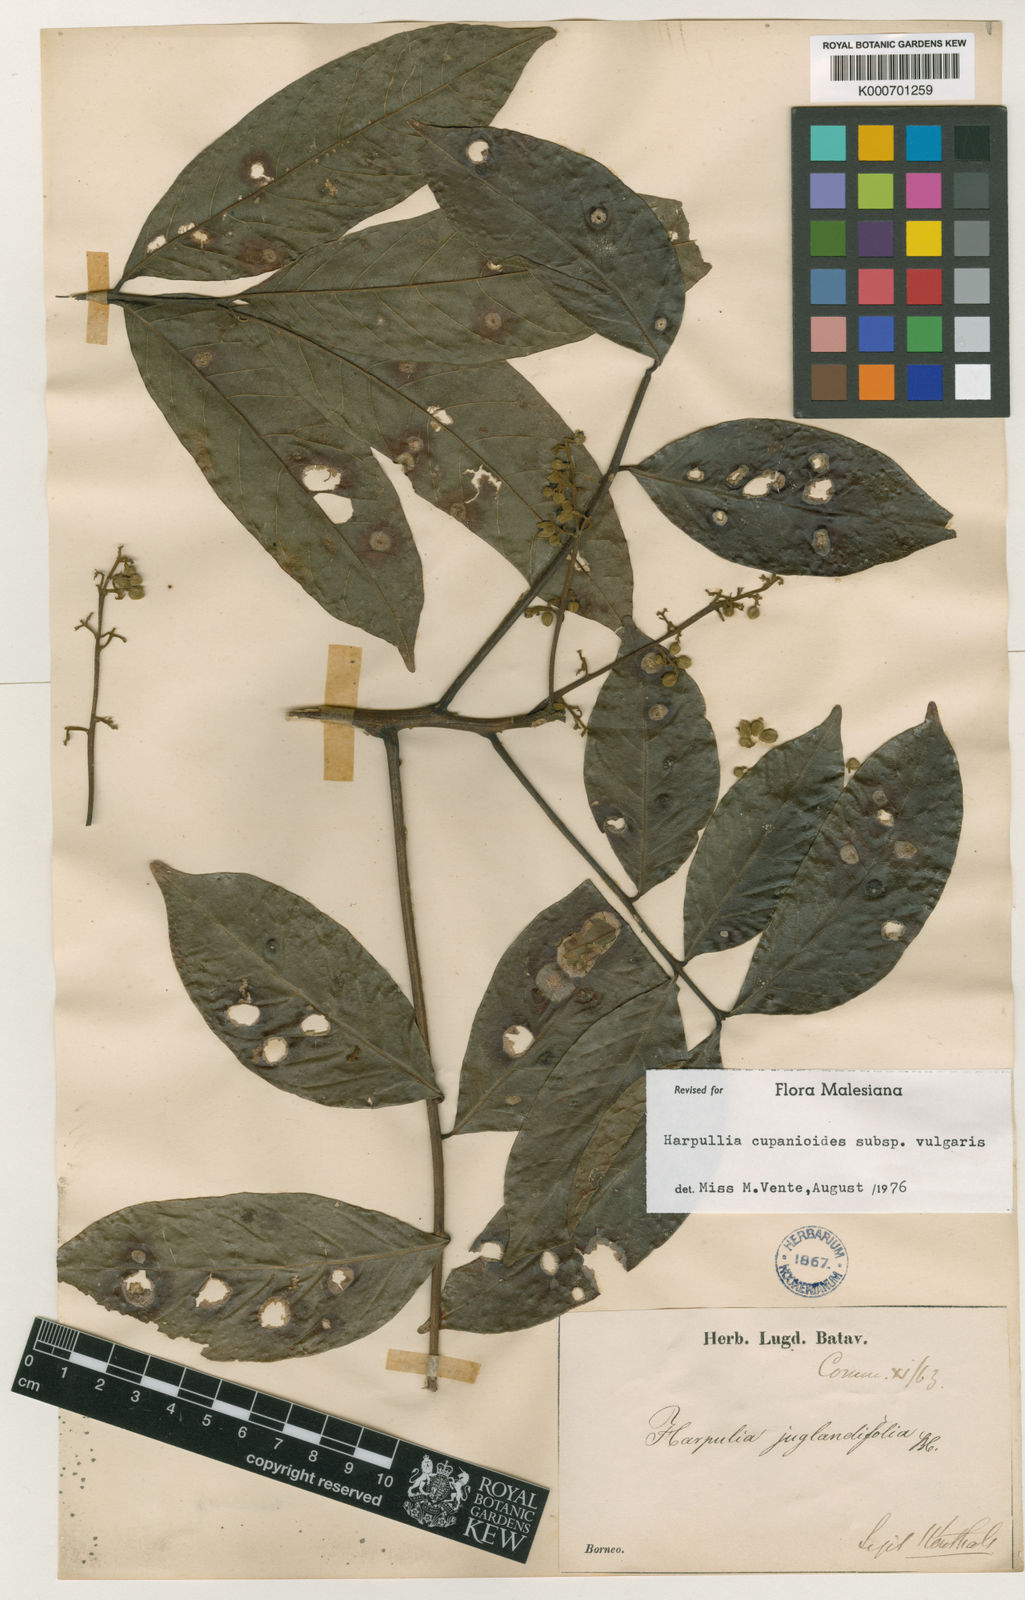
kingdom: Plantae
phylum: Tracheophyta
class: Magnoliopsida
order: Sapindales
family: Sapindaceae
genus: Harpullia
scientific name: Harpullia cupanioides
